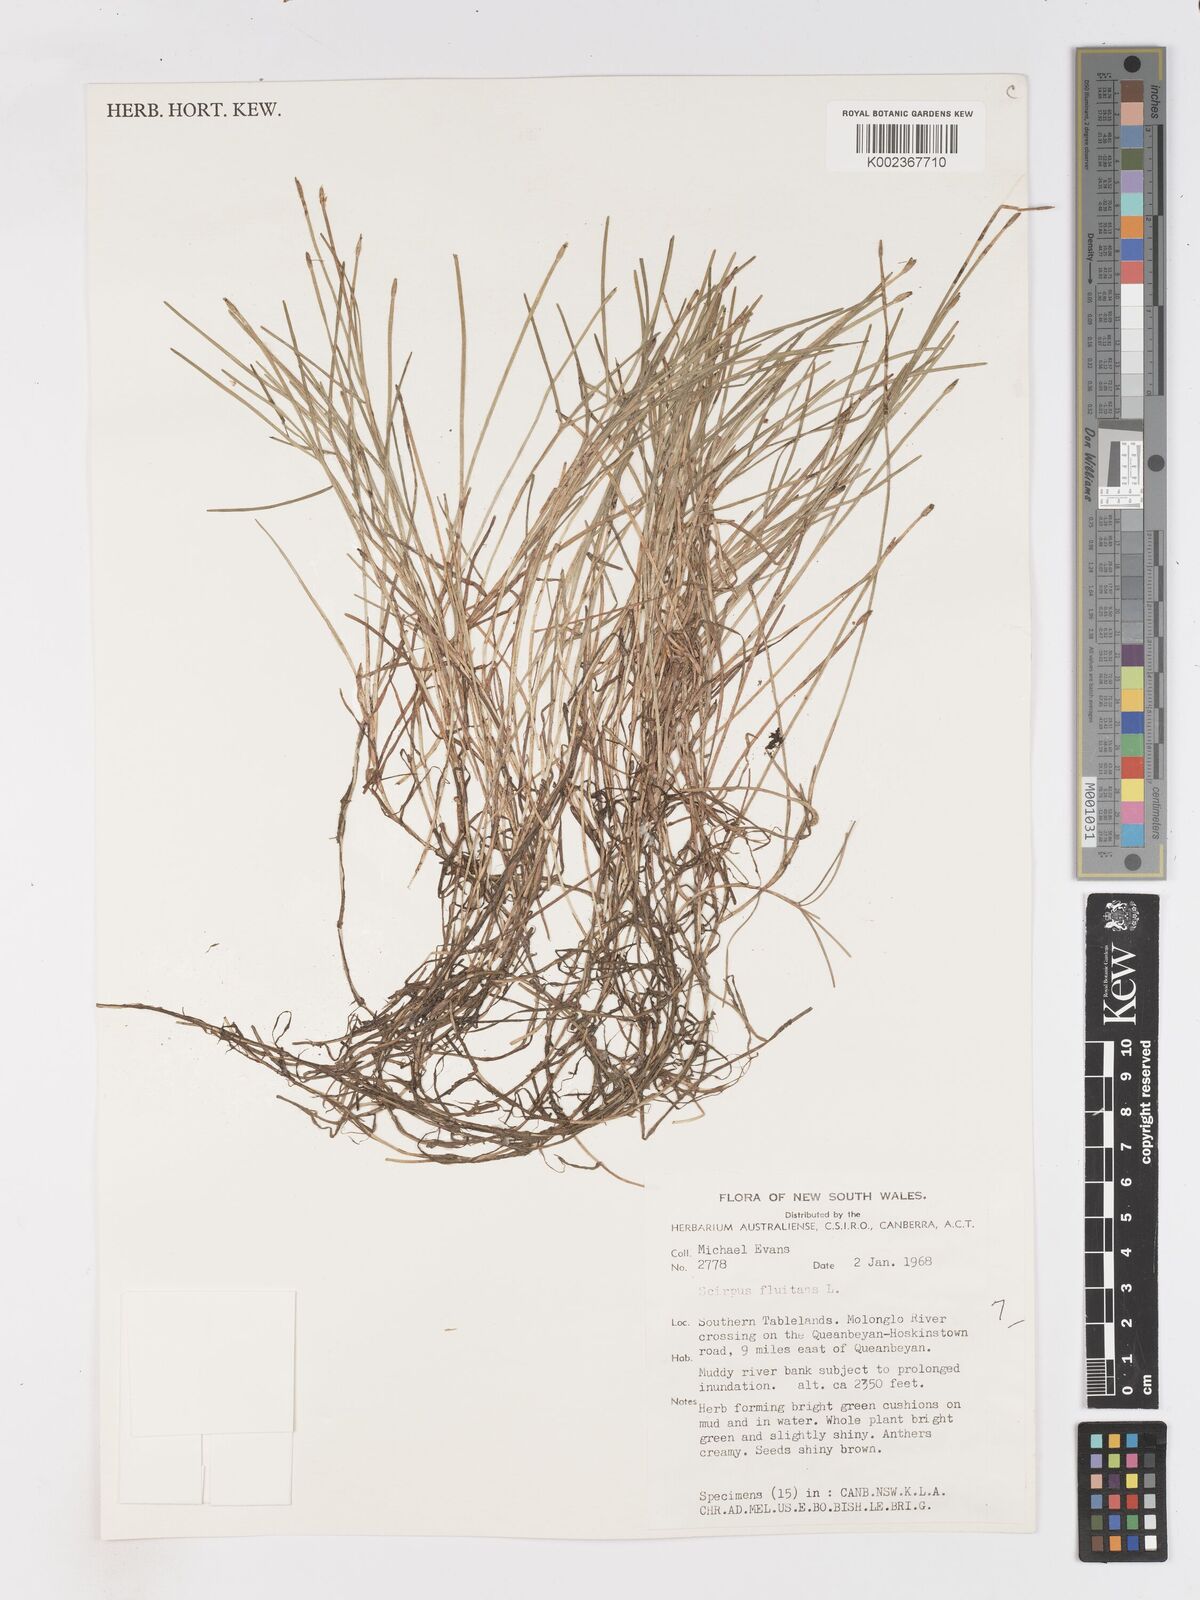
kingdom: Plantae
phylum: Tracheophyta
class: Liliopsida
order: Poales
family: Cyperaceae
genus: Isolepis
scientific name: Isolepis producta
